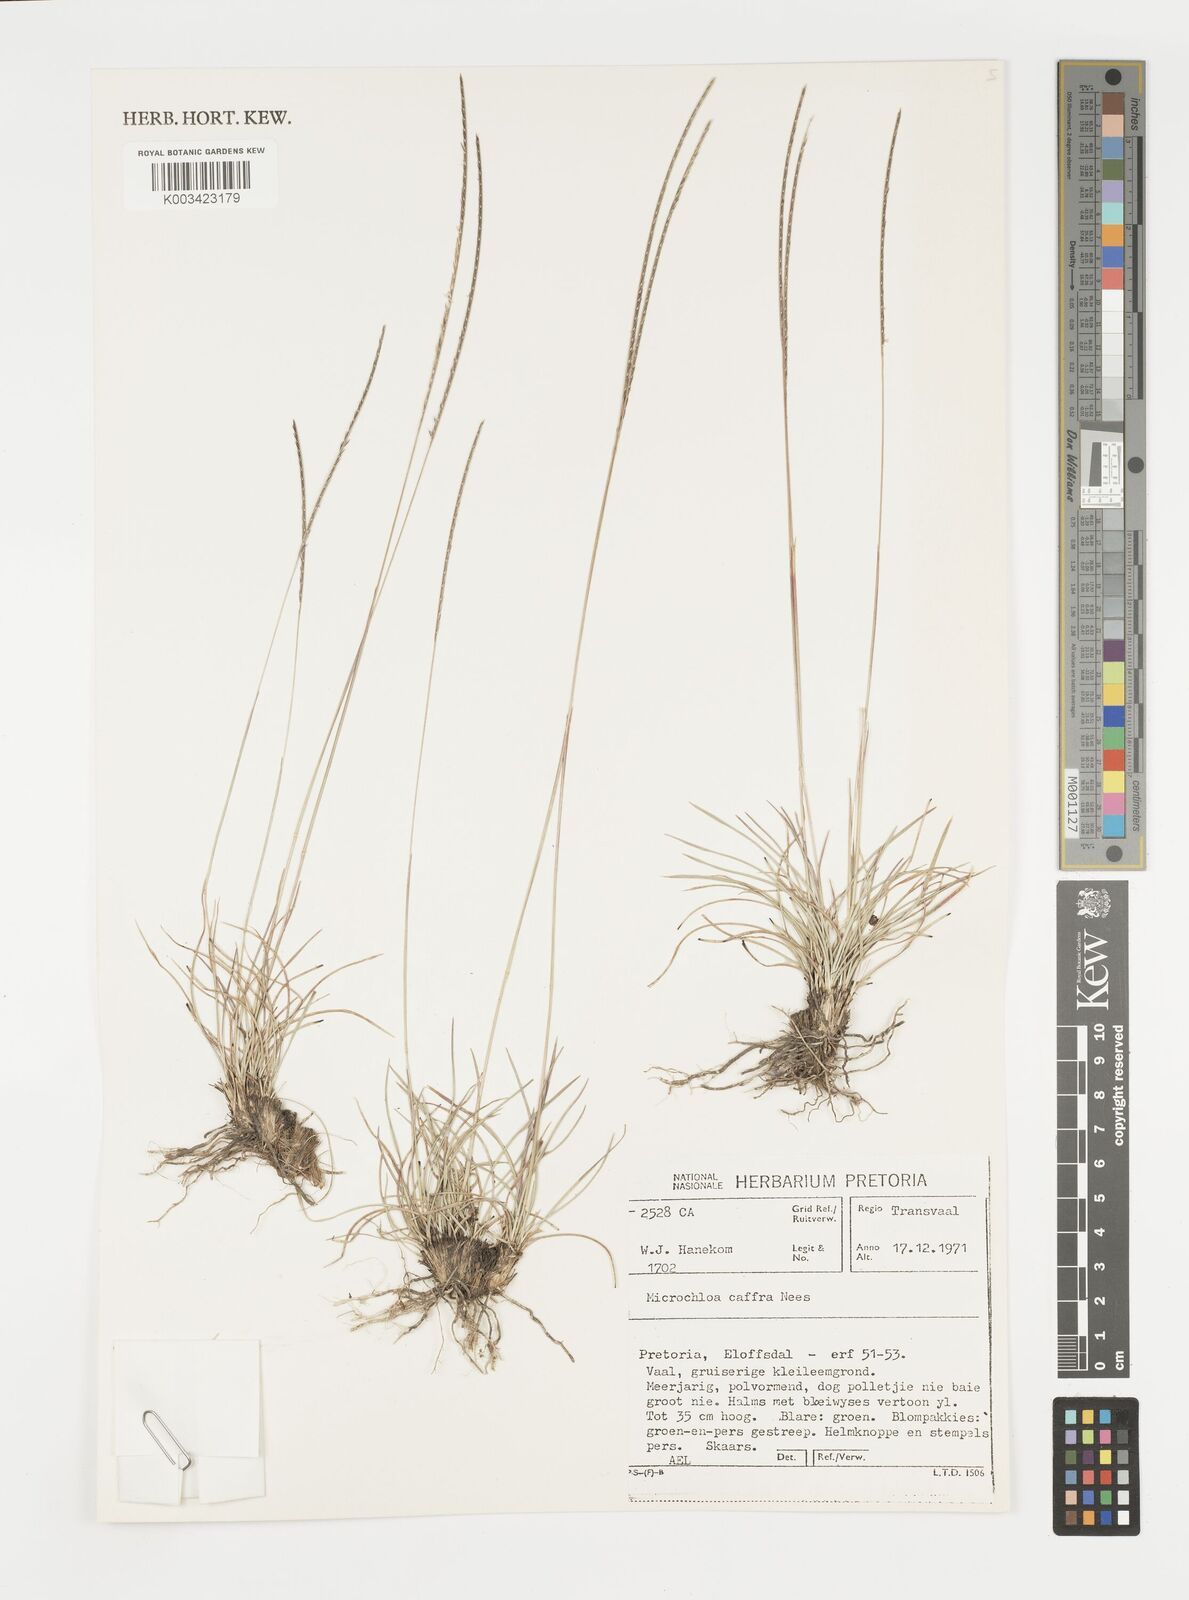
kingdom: Plantae
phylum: Tracheophyta
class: Liliopsida
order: Poales
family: Poaceae
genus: Microchloa
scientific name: Microchloa caffra
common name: Pincushion grass
